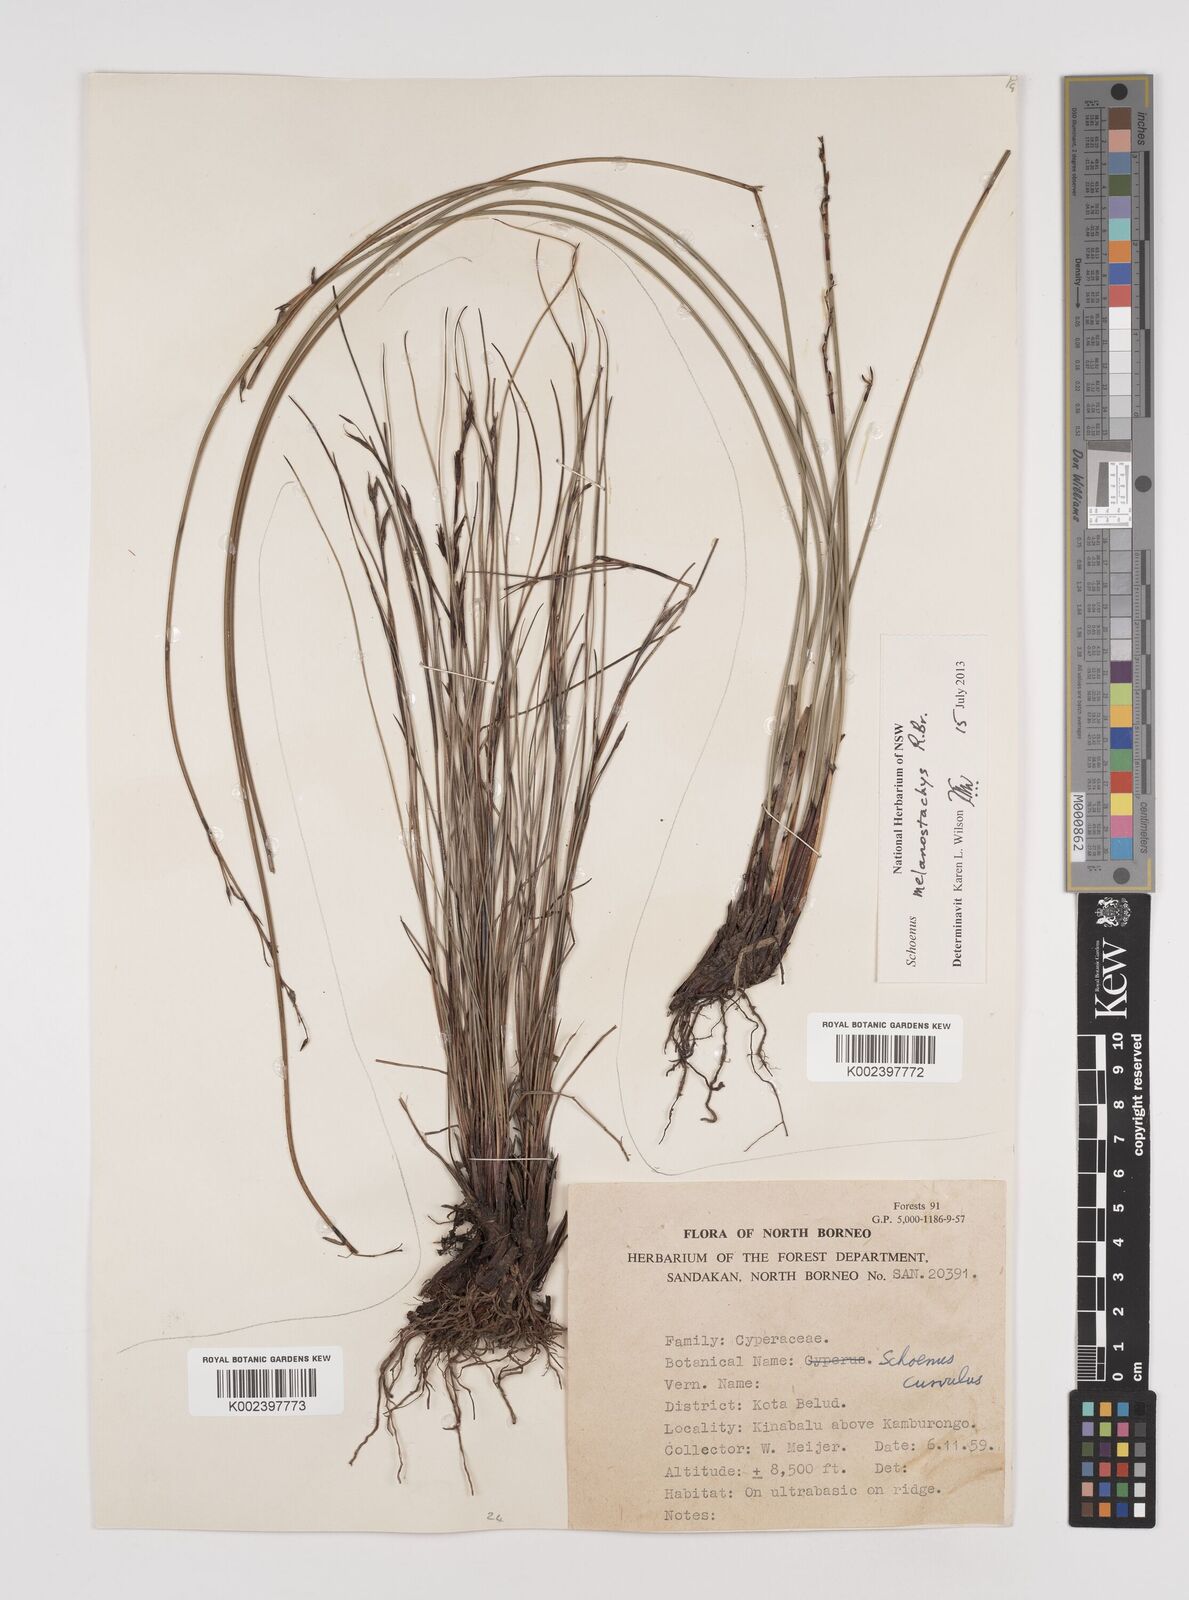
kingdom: Plantae
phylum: Tracheophyta
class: Liliopsida
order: Poales
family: Cyperaceae
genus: Schoenus
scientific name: Schoenus curvulus
